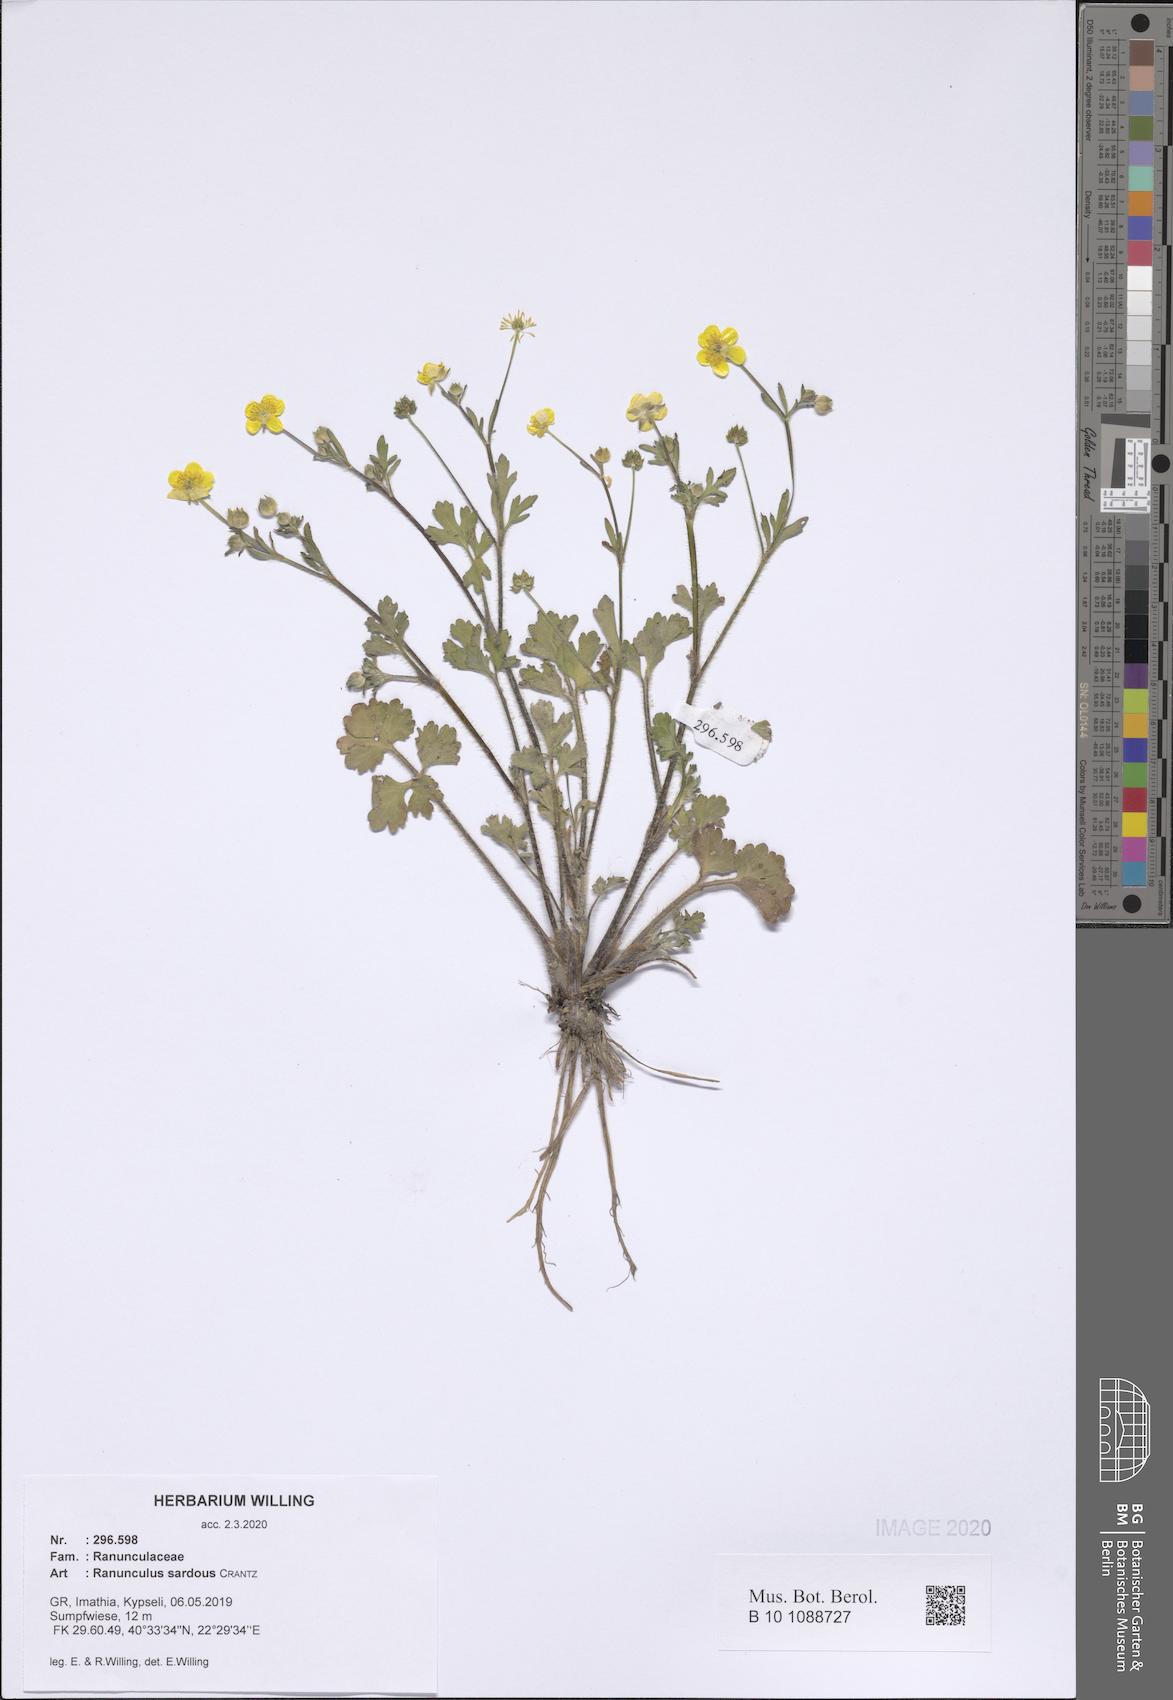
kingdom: Plantae
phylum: Tracheophyta
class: Magnoliopsida
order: Ranunculales
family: Ranunculaceae
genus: Ranunculus
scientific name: Ranunculus sardous
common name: Hairy buttercup
